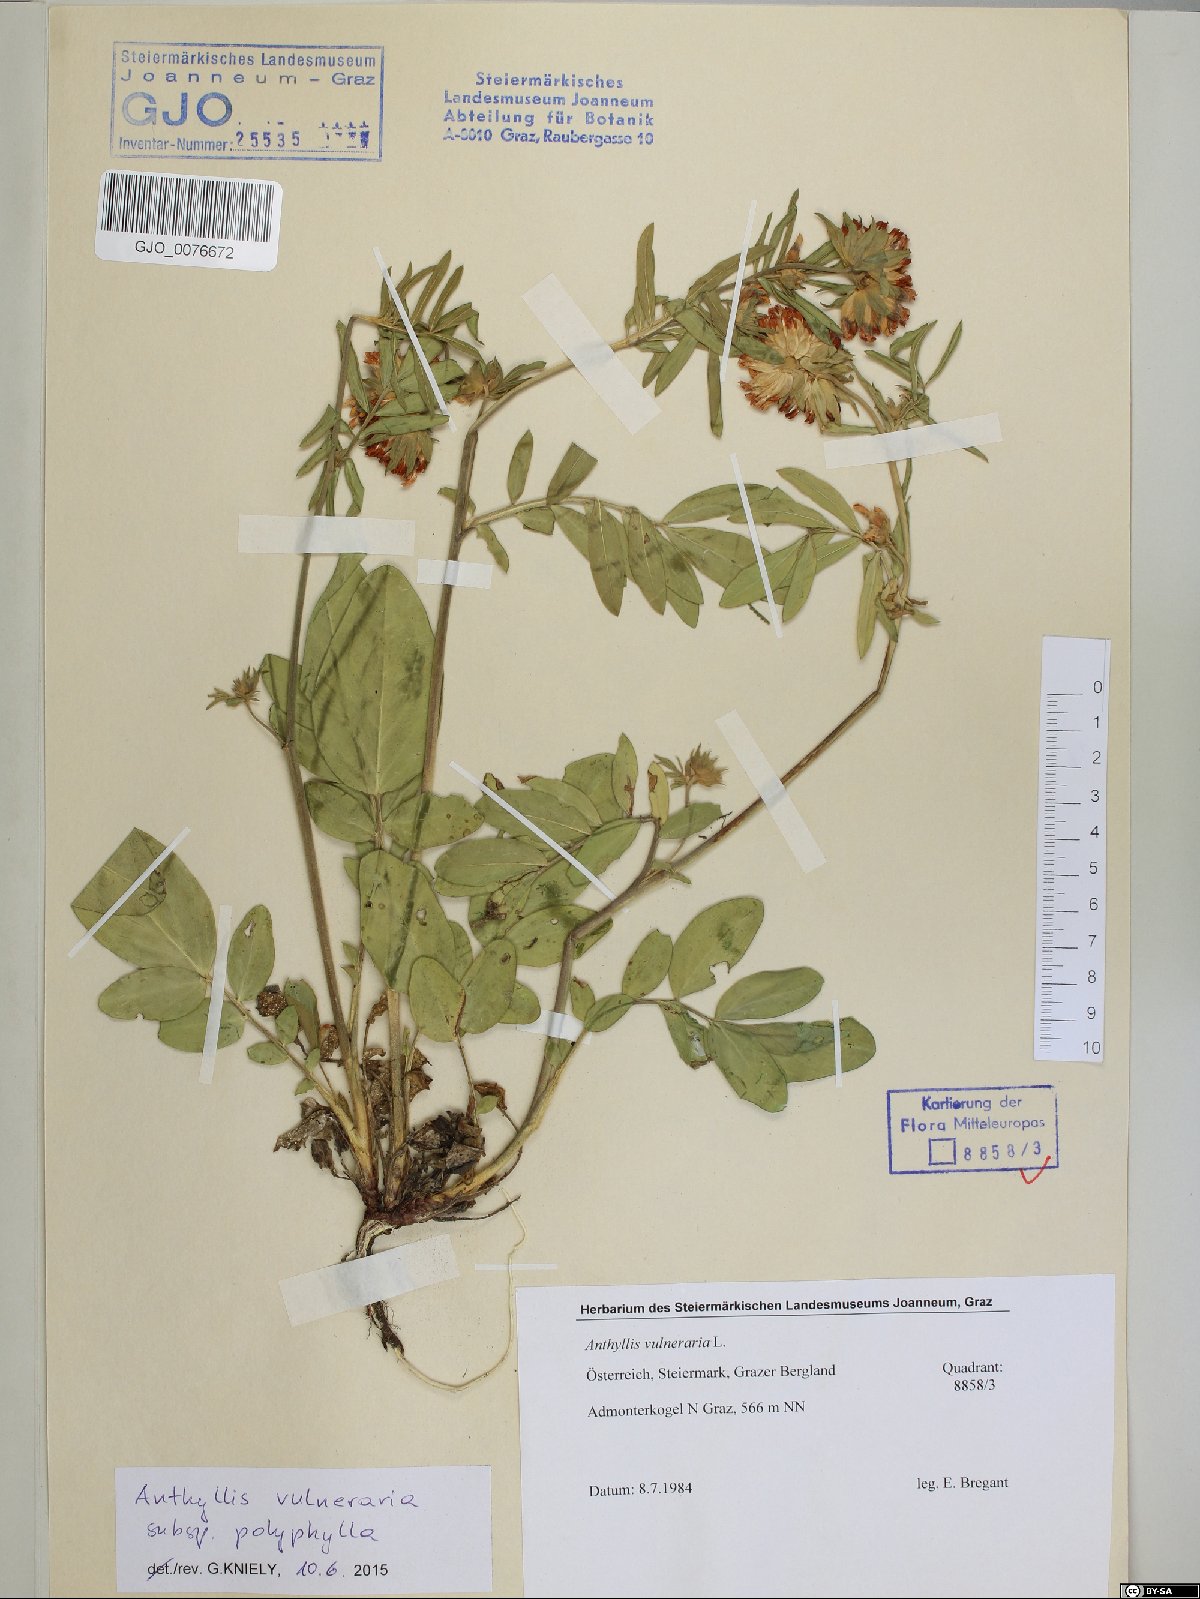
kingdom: Plantae
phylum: Tracheophyta
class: Magnoliopsida
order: Fabales
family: Fabaceae
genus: Anthyllis
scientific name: Anthyllis vulneraria
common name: Kidney vetch
